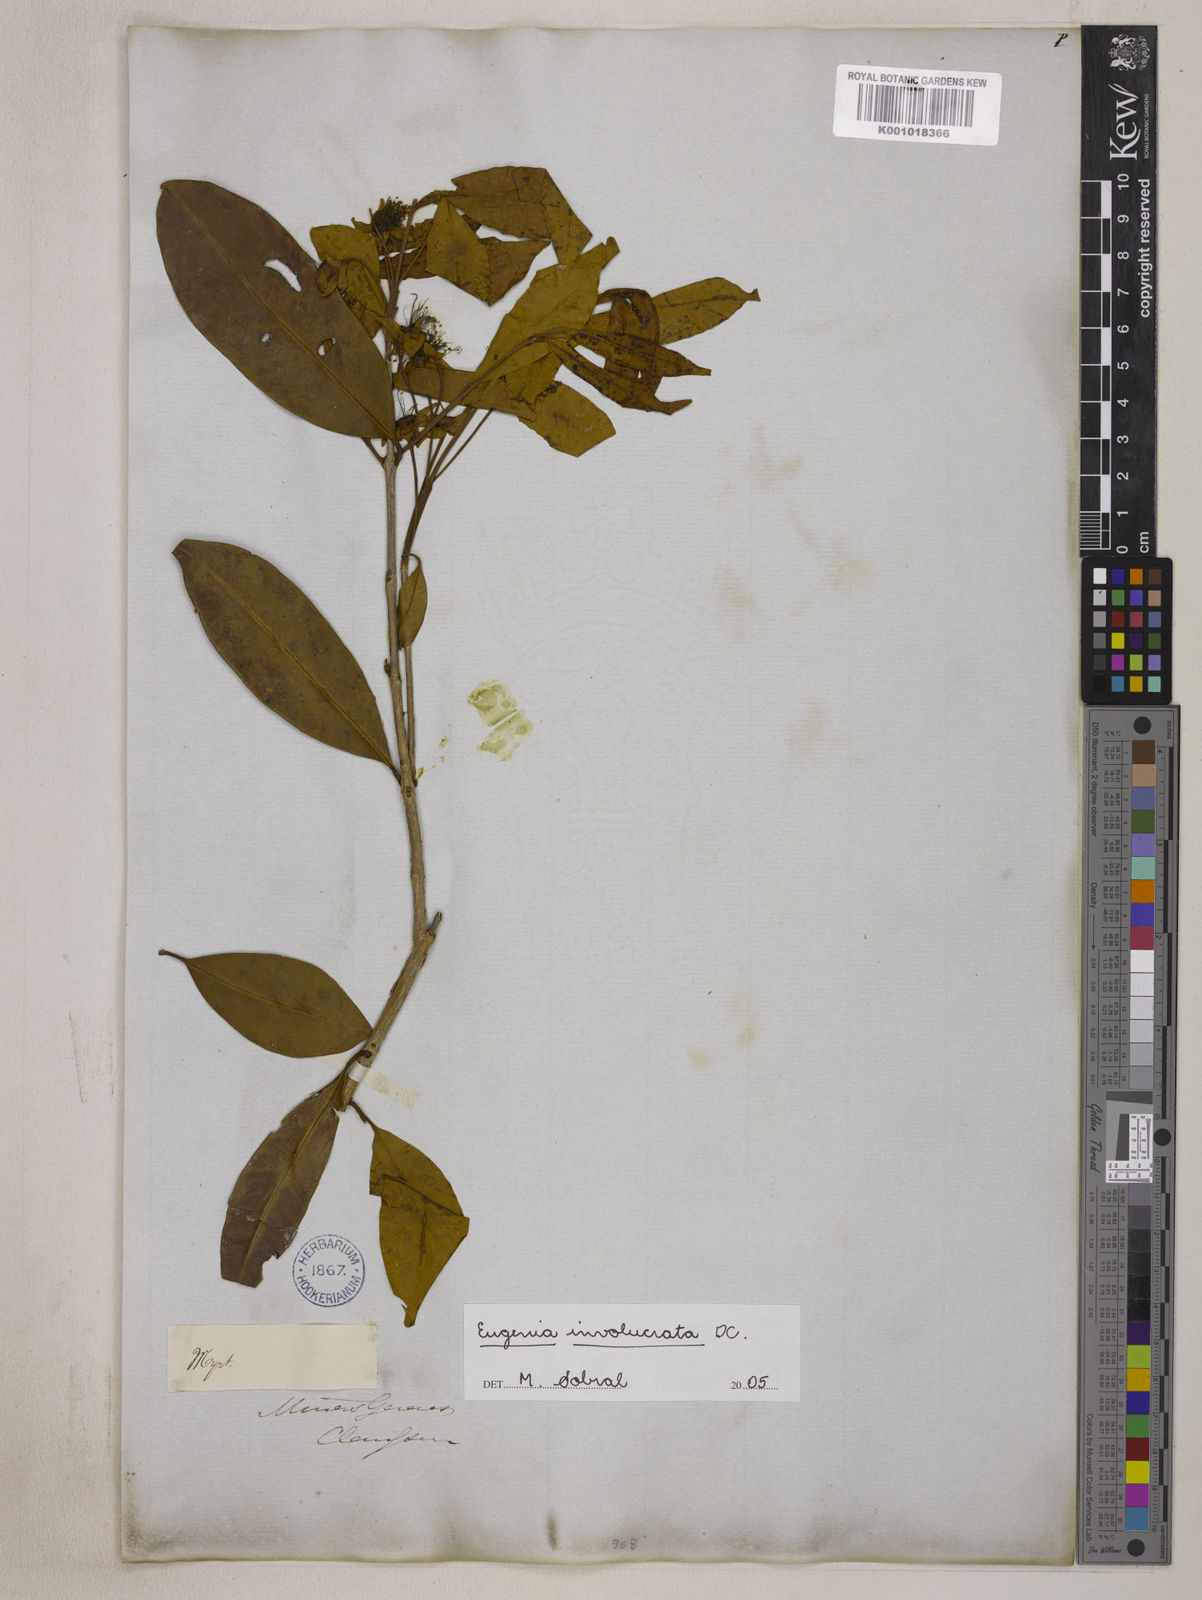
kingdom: Plantae
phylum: Tracheophyta
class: Magnoliopsida
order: Myrtales
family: Myrtaceae
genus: Eugenia
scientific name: Eugenia involucrata
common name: Cherry-of-the-rio grande
